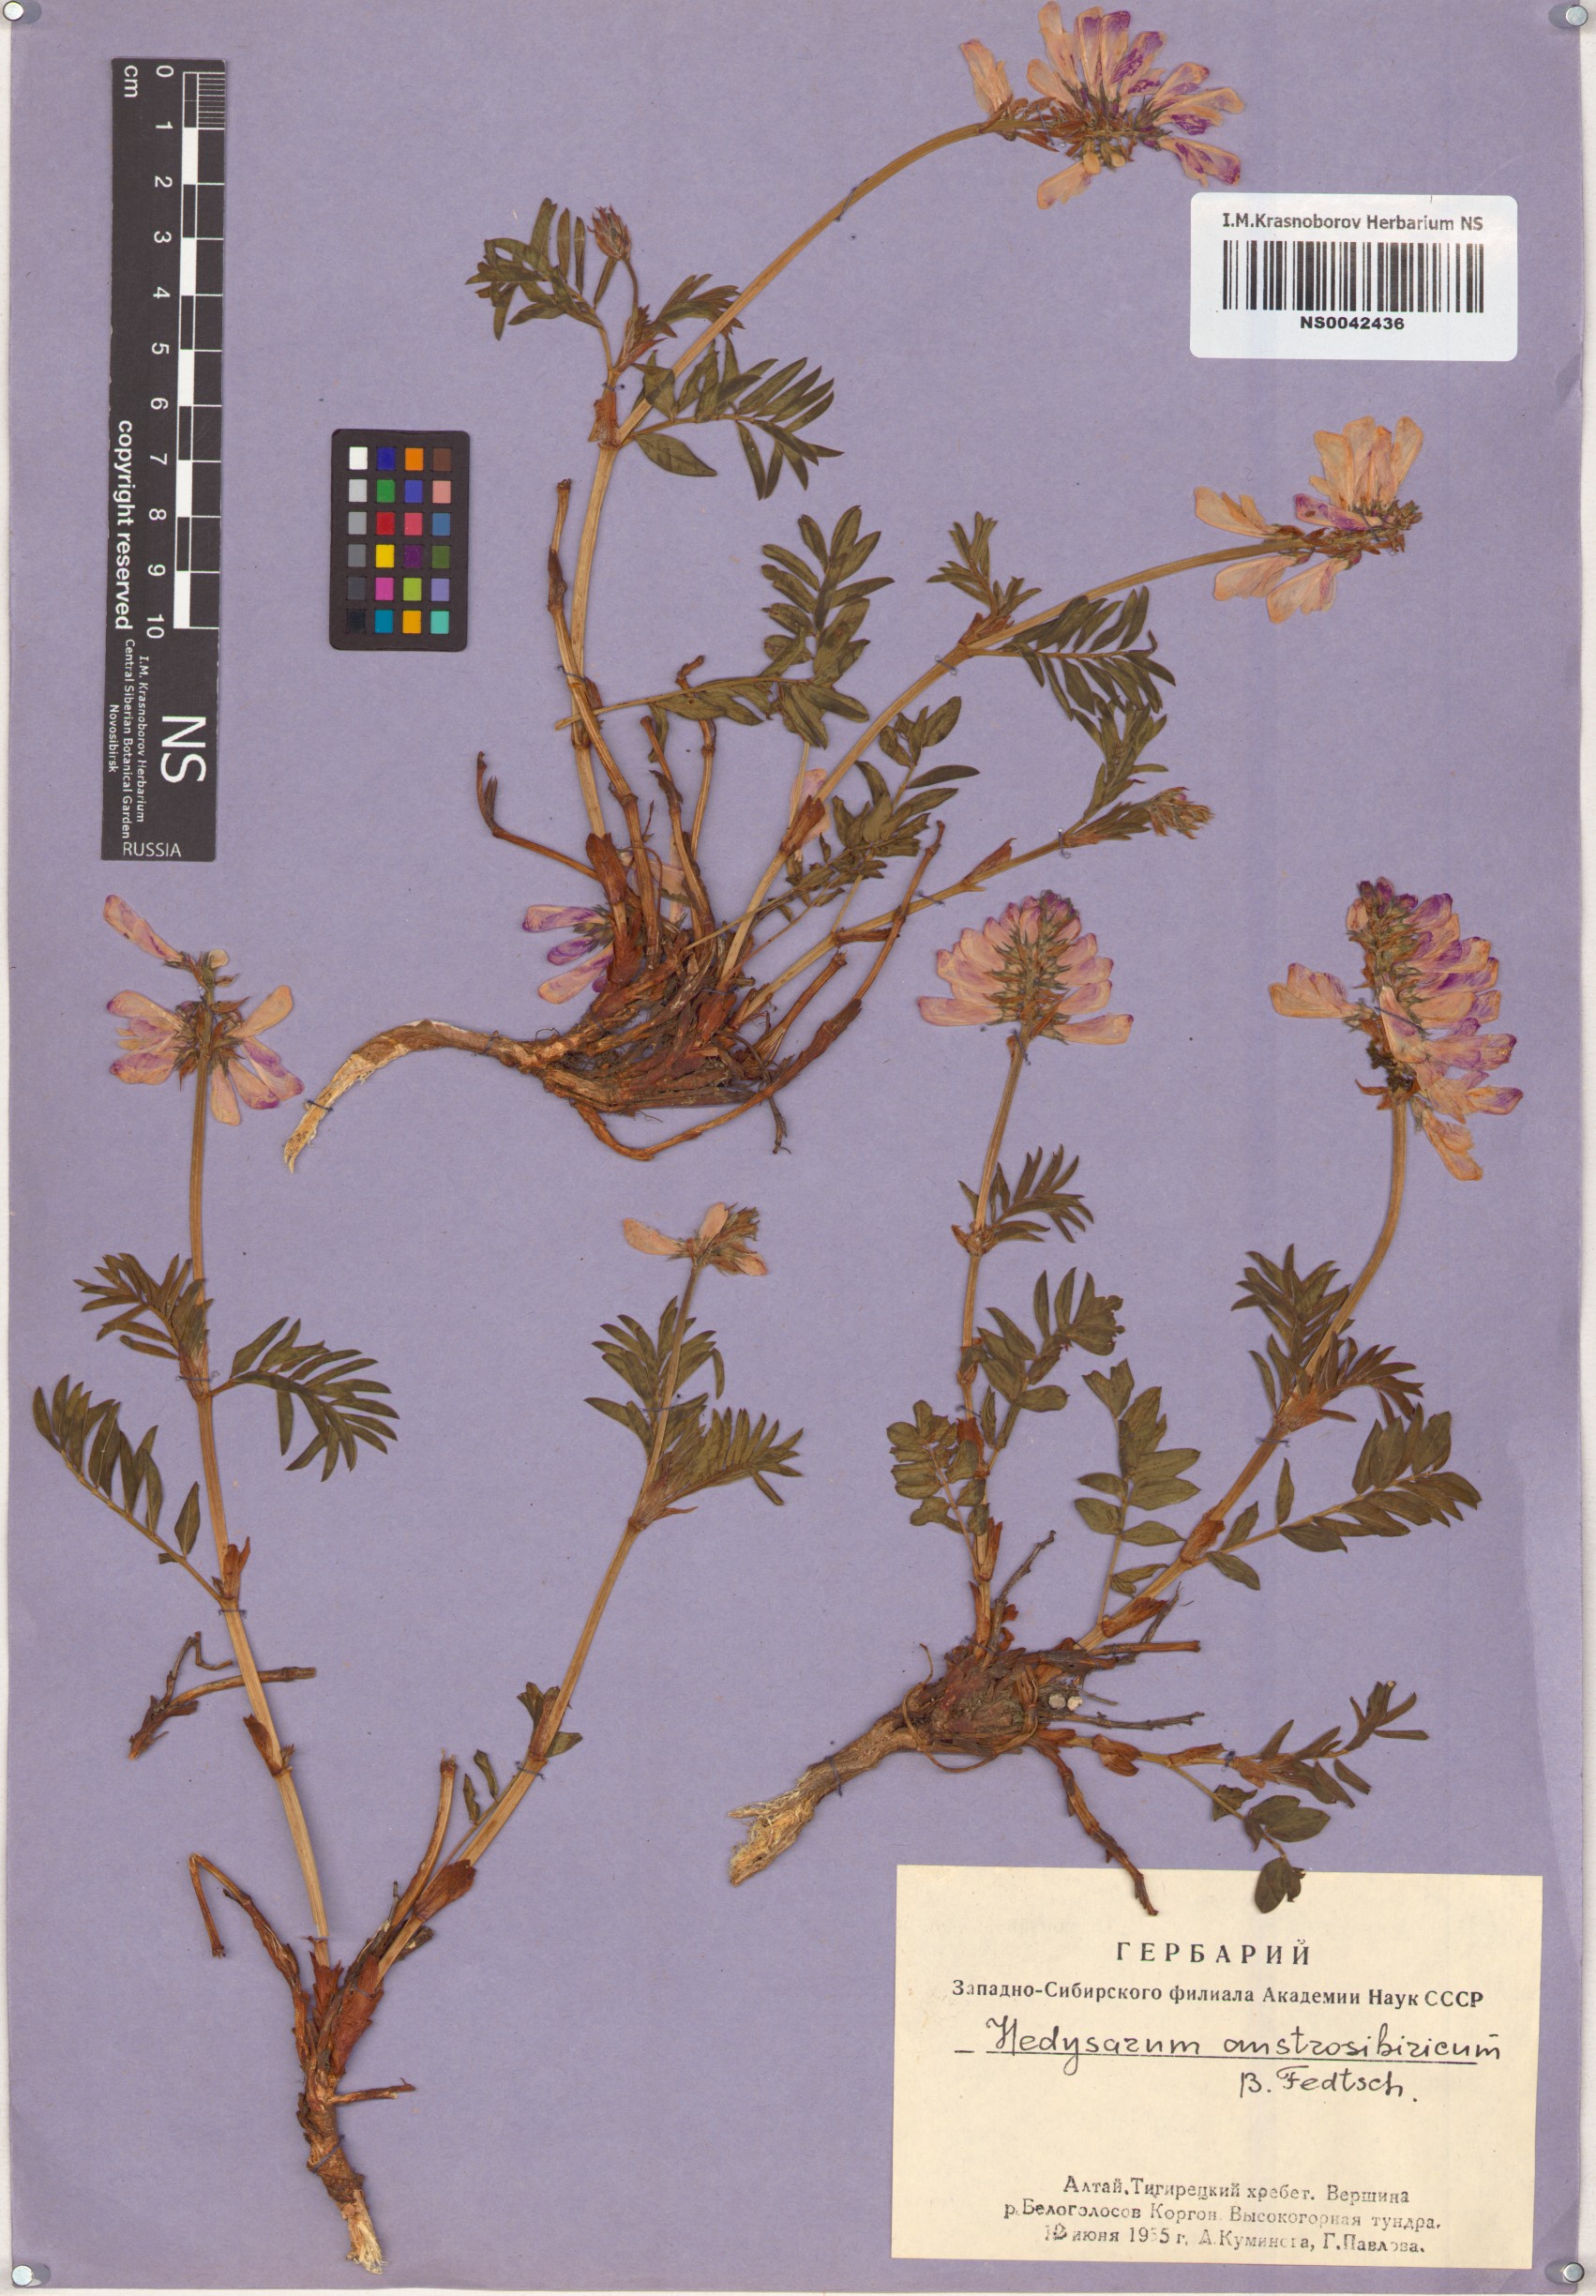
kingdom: Plantae
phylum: Tracheophyta
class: Magnoliopsida
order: Fabales
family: Fabaceae
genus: Hedysarum
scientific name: Hedysarum neglectum
